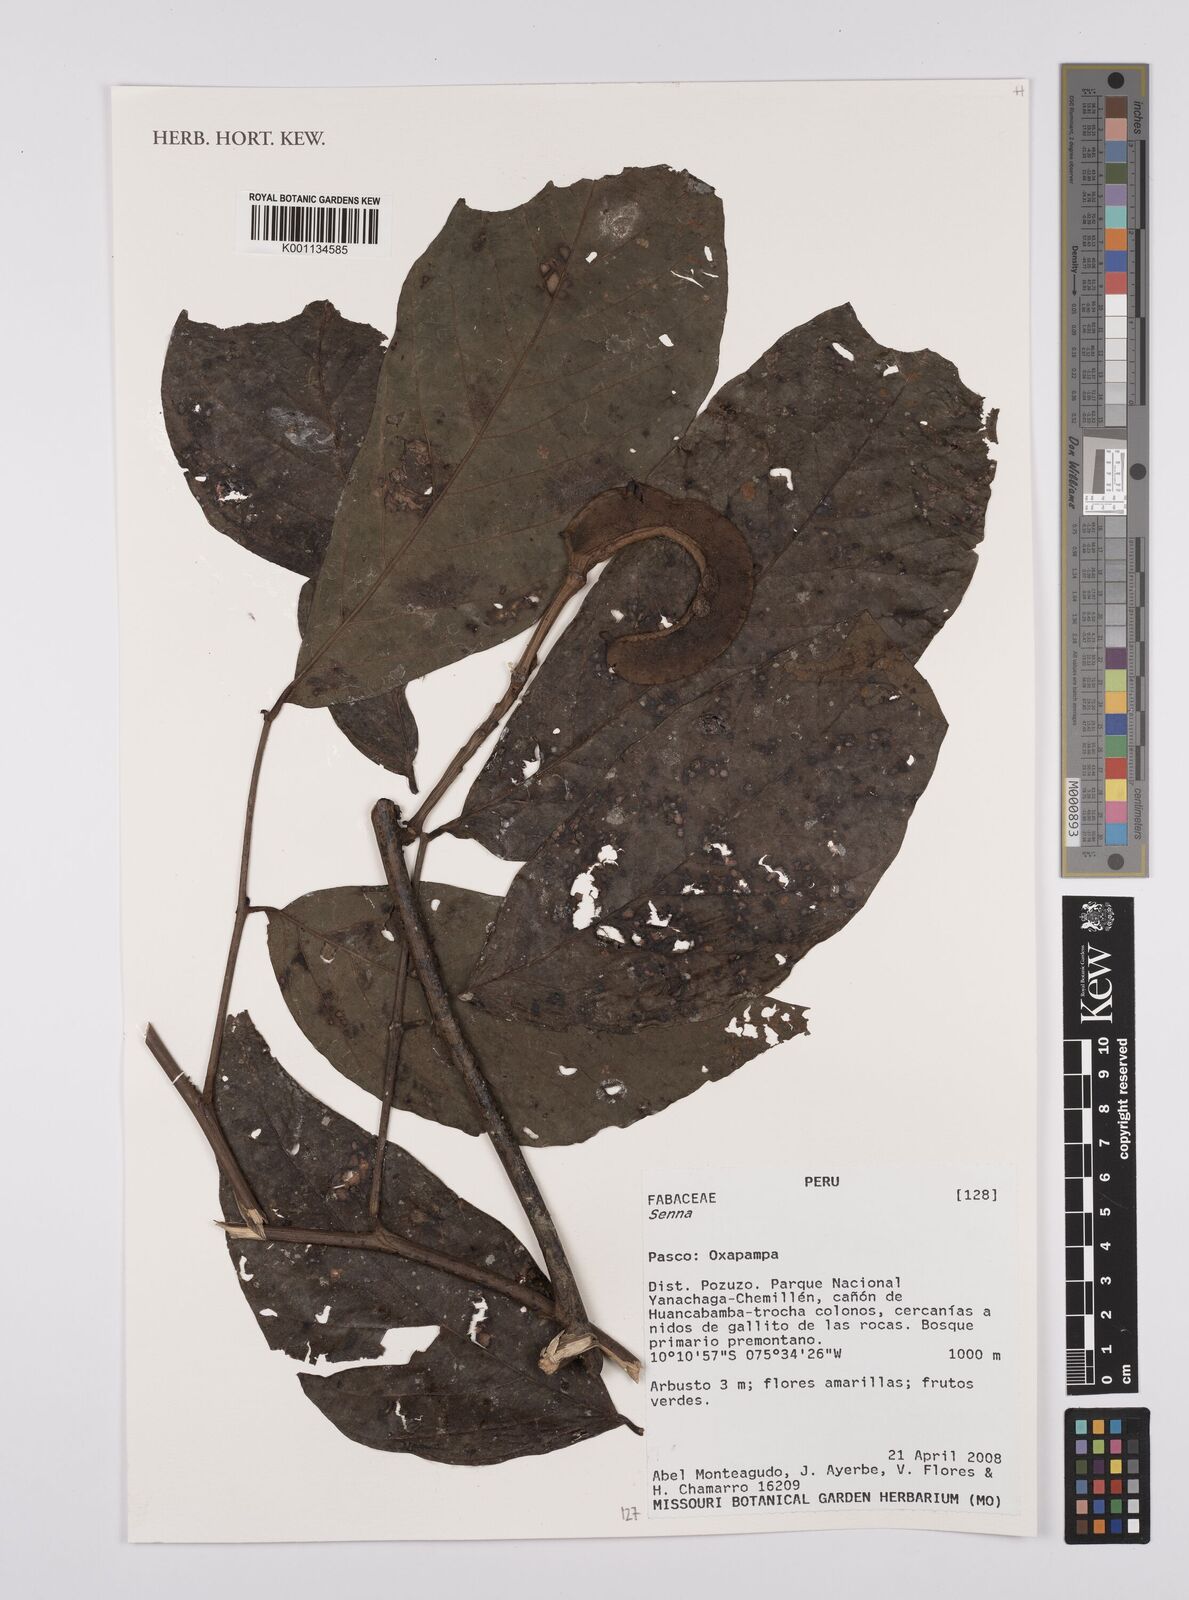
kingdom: Plantae
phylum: Tracheophyta
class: Magnoliopsida
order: Fabales
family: Fabaceae
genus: Senna
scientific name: Senna
